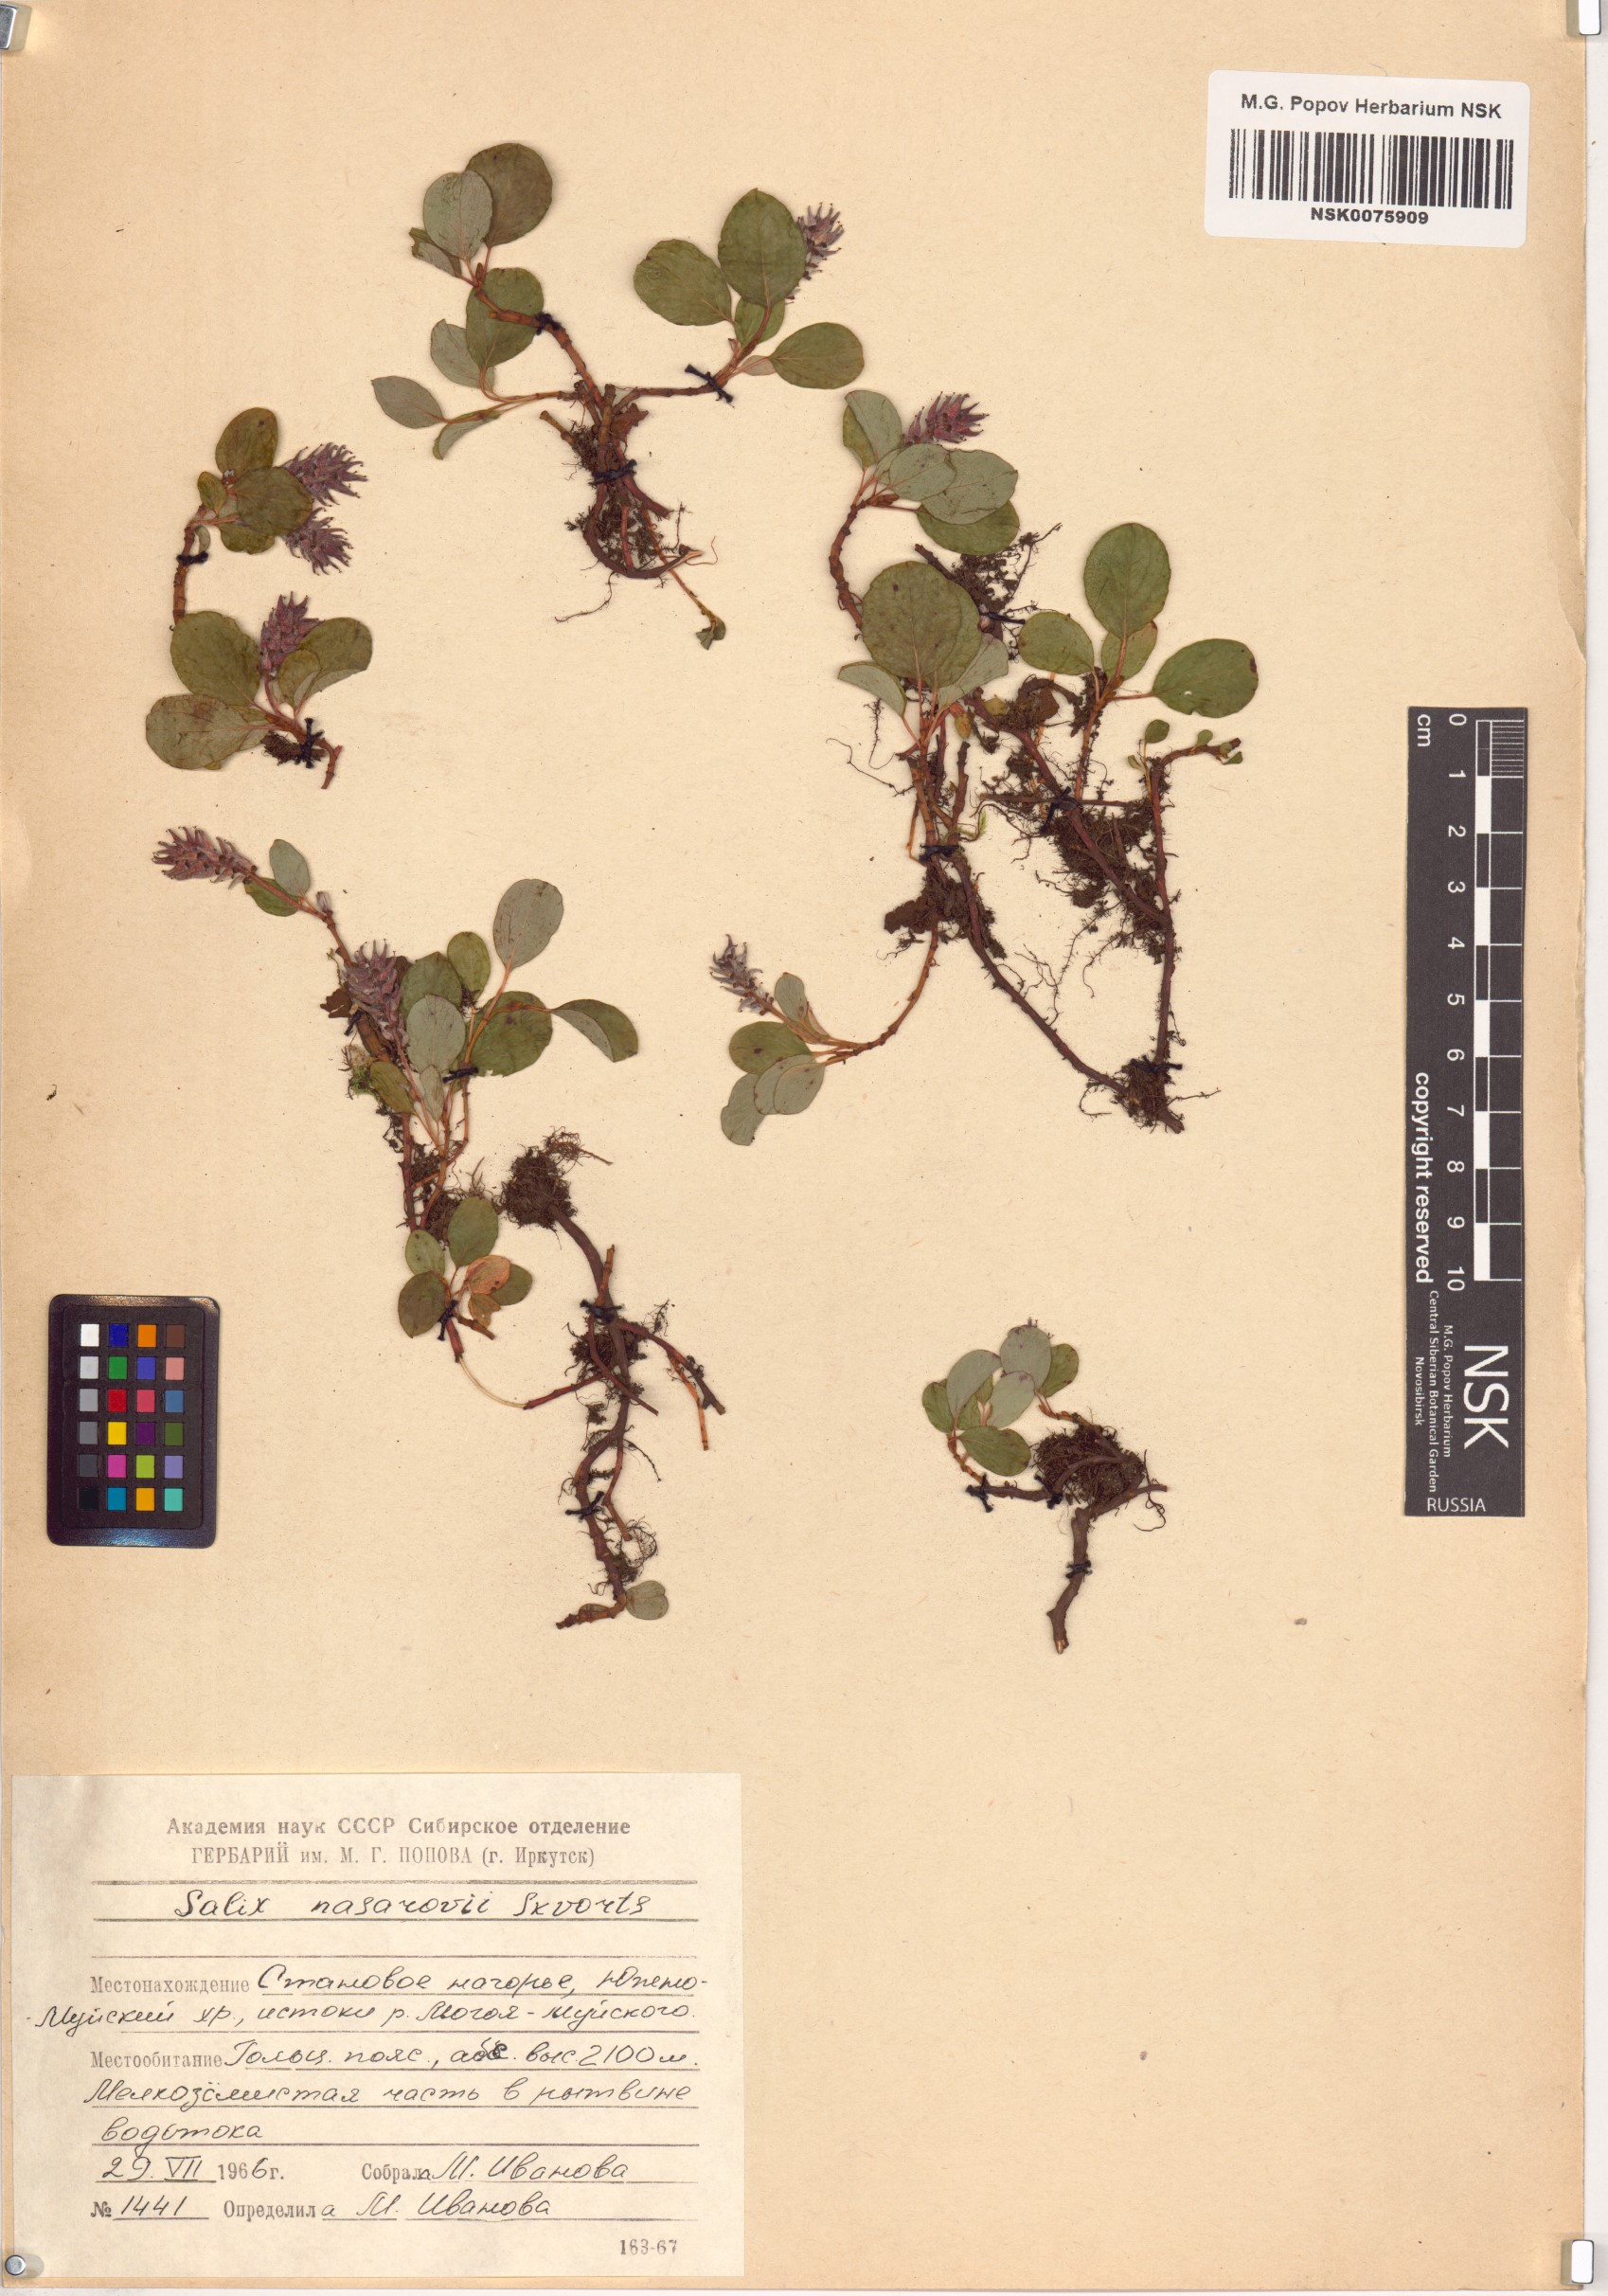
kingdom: Plantae
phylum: Tracheophyta
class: Magnoliopsida
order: Malpighiales
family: Salicaceae
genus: Salix
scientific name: Salix nasarovii
